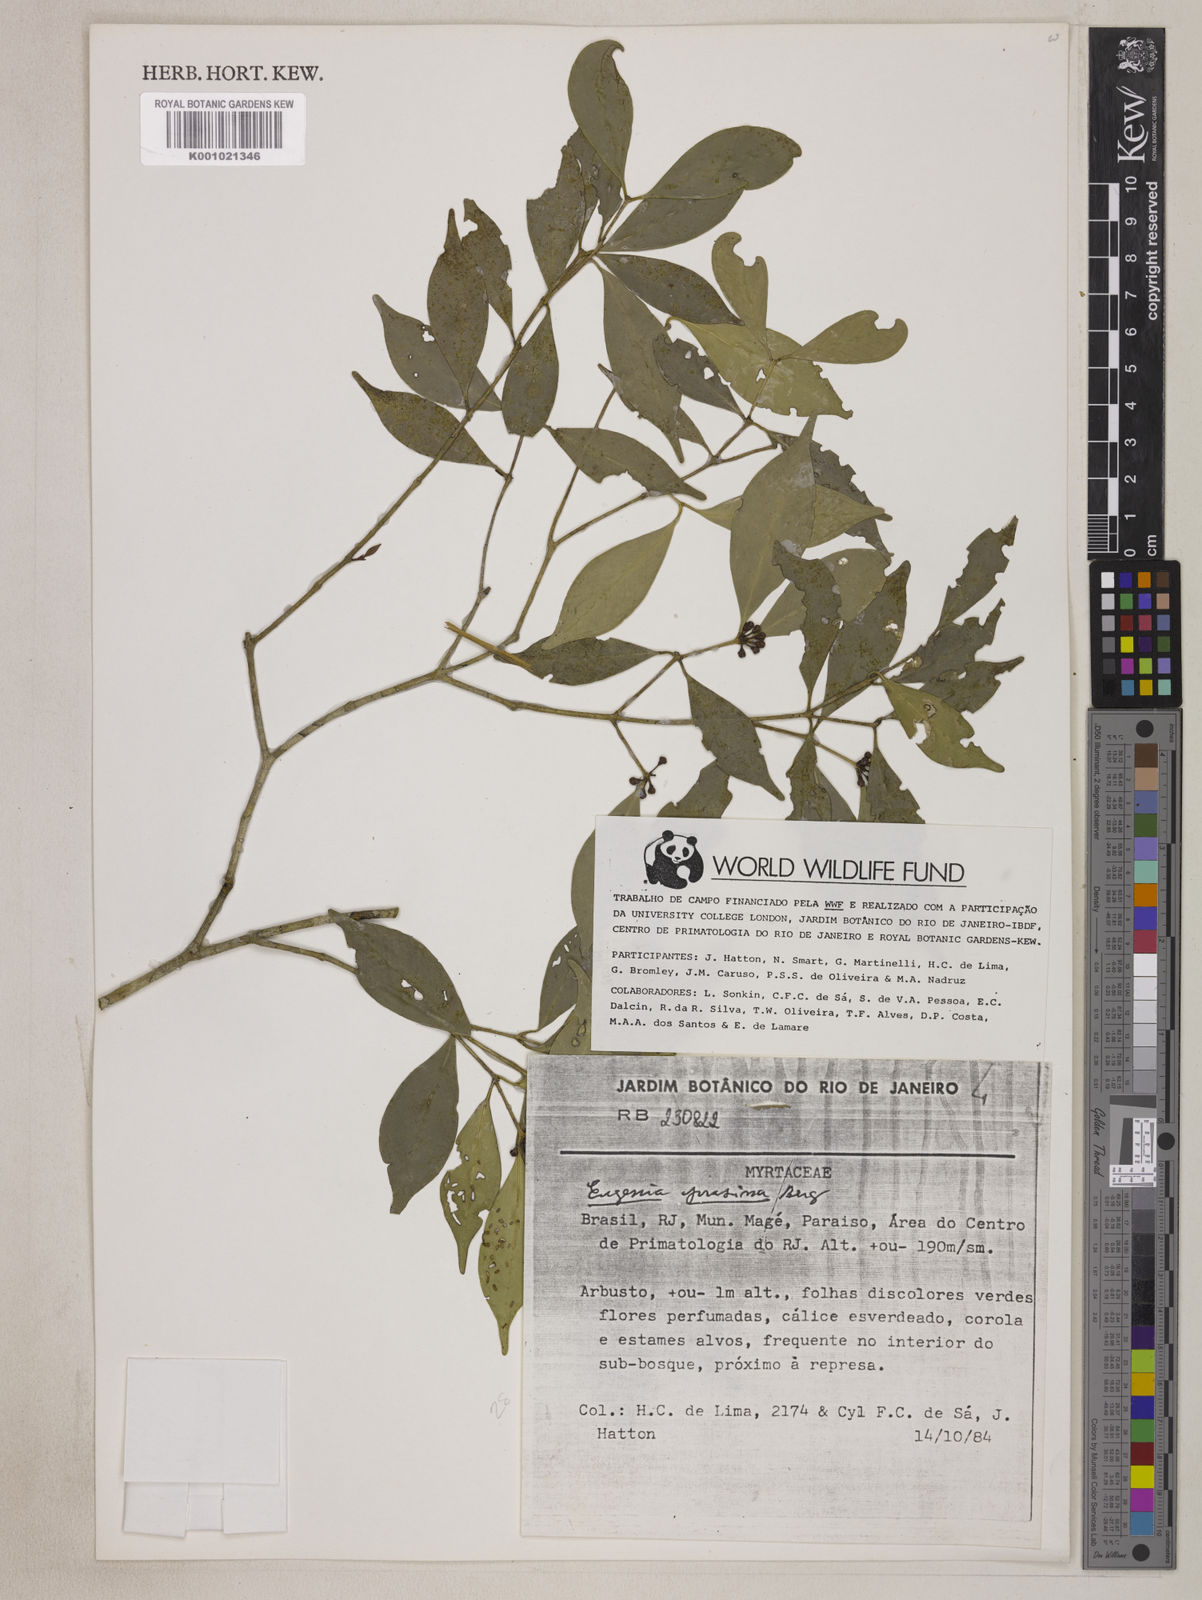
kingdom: Plantae
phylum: Tracheophyta
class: Magnoliopsida
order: Myrtales
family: Myrtaceae
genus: Eugenia
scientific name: Eugenia prasina
